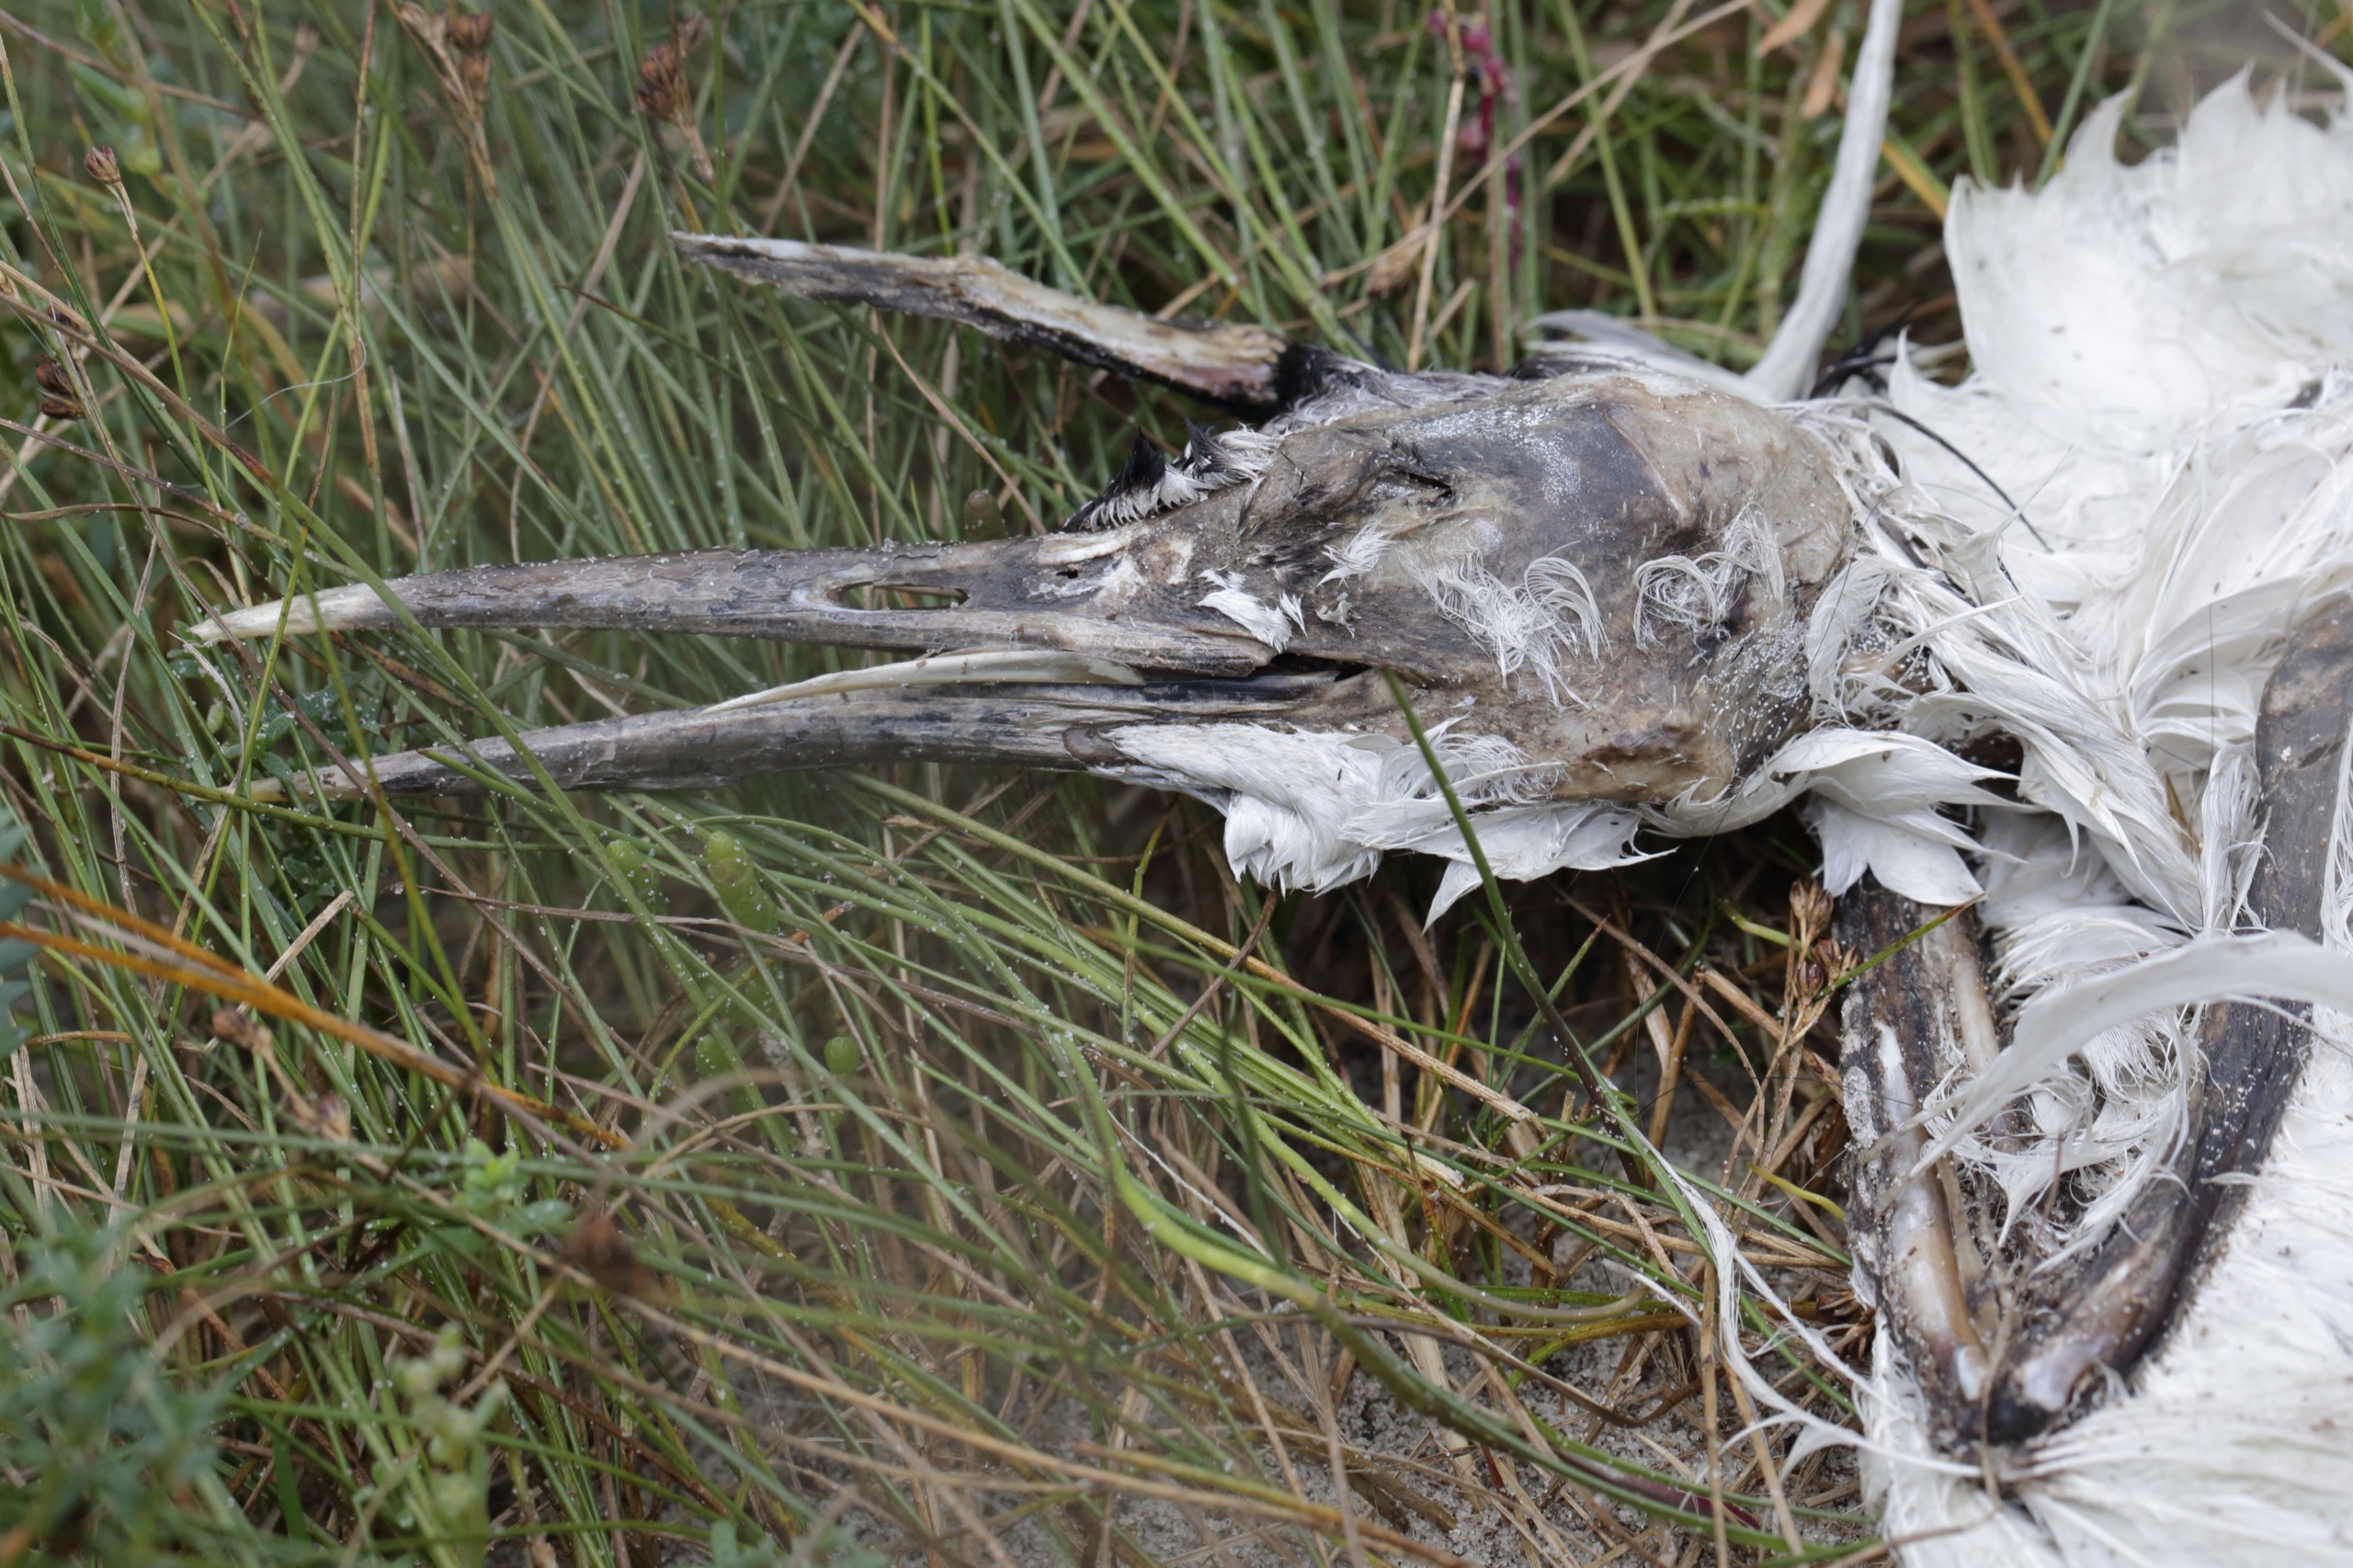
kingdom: Animalia
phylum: Chordata
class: Aves
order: Charadriiformes
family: Laridae
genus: Thalasseus
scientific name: Thalasseus sandvicensis
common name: Splitterne
